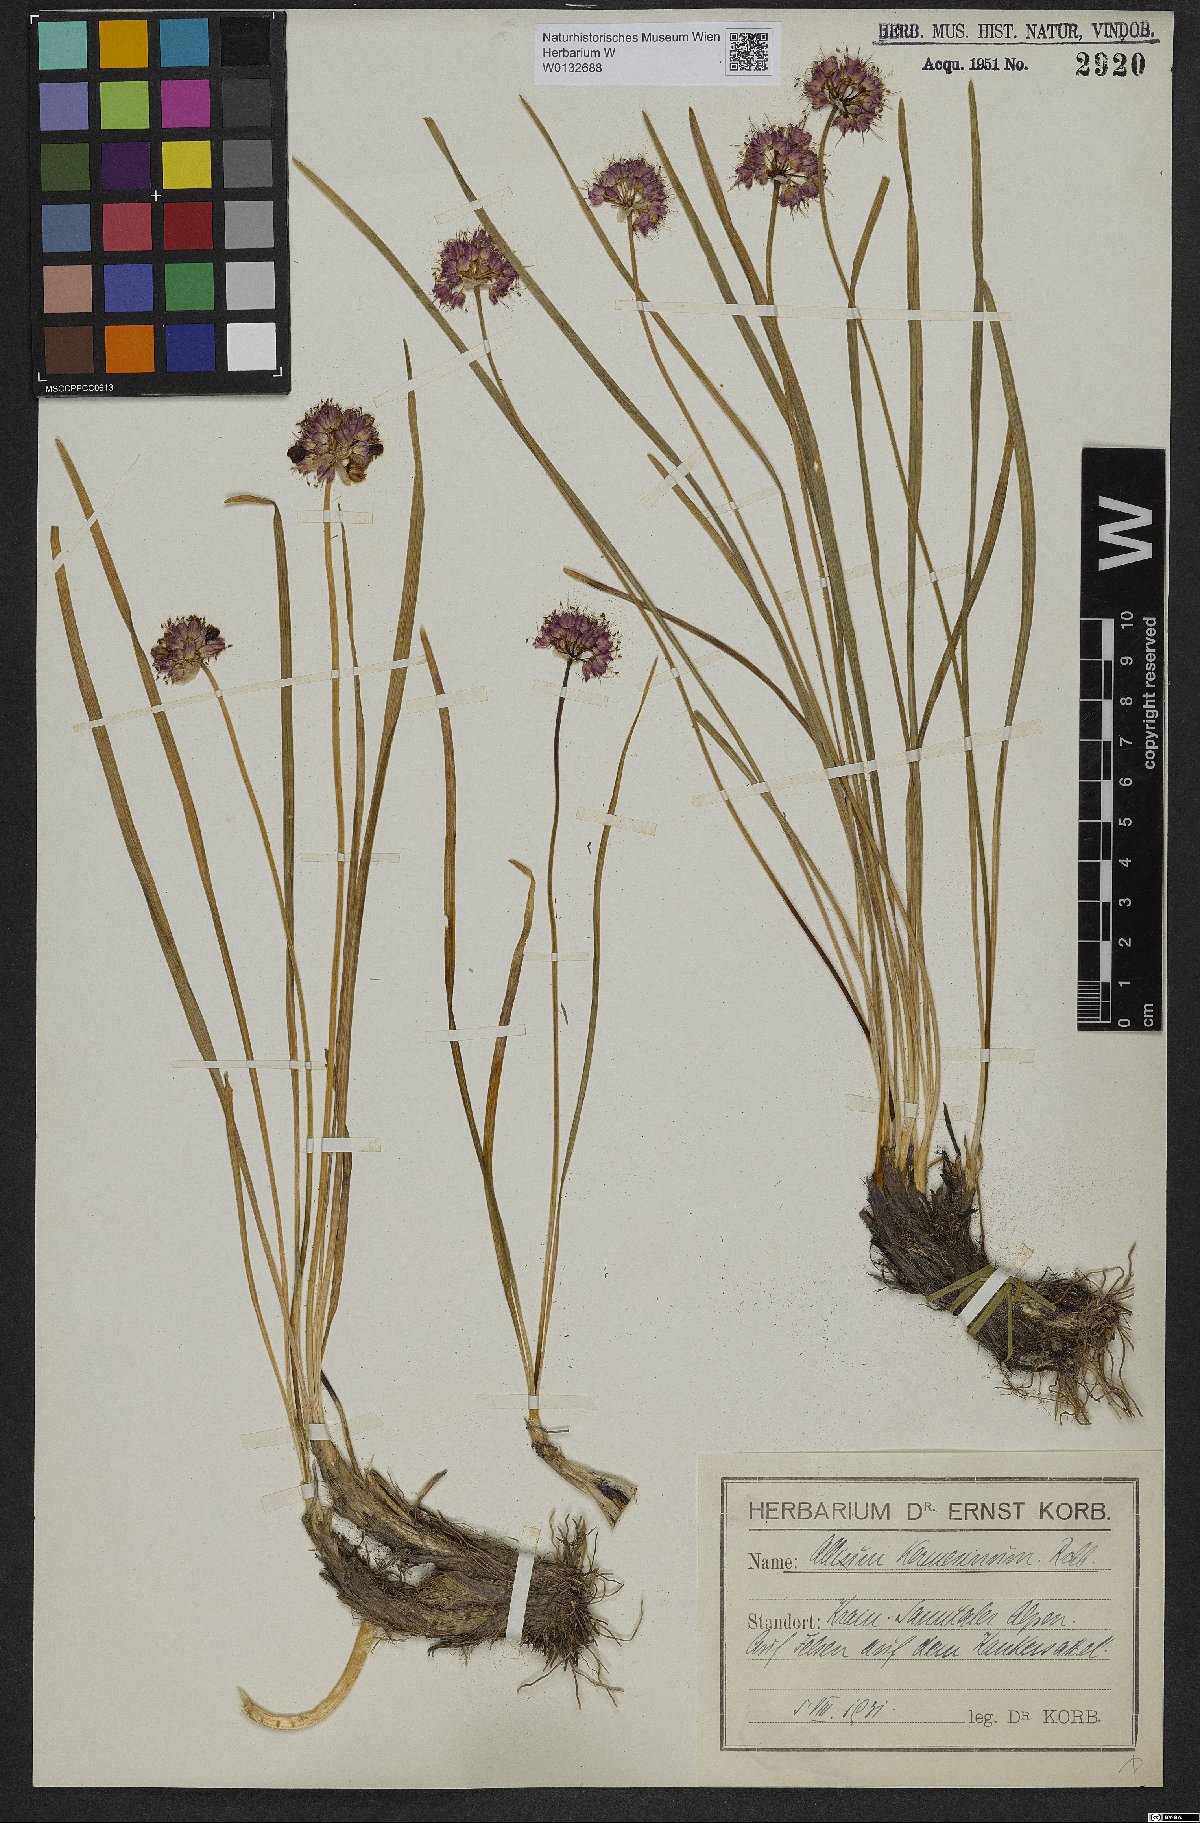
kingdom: Plantae
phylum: Tracheophyta
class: Liliopsida
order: Asparagales
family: Amaryllidaceae
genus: Allium
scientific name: Allium kermesinum
